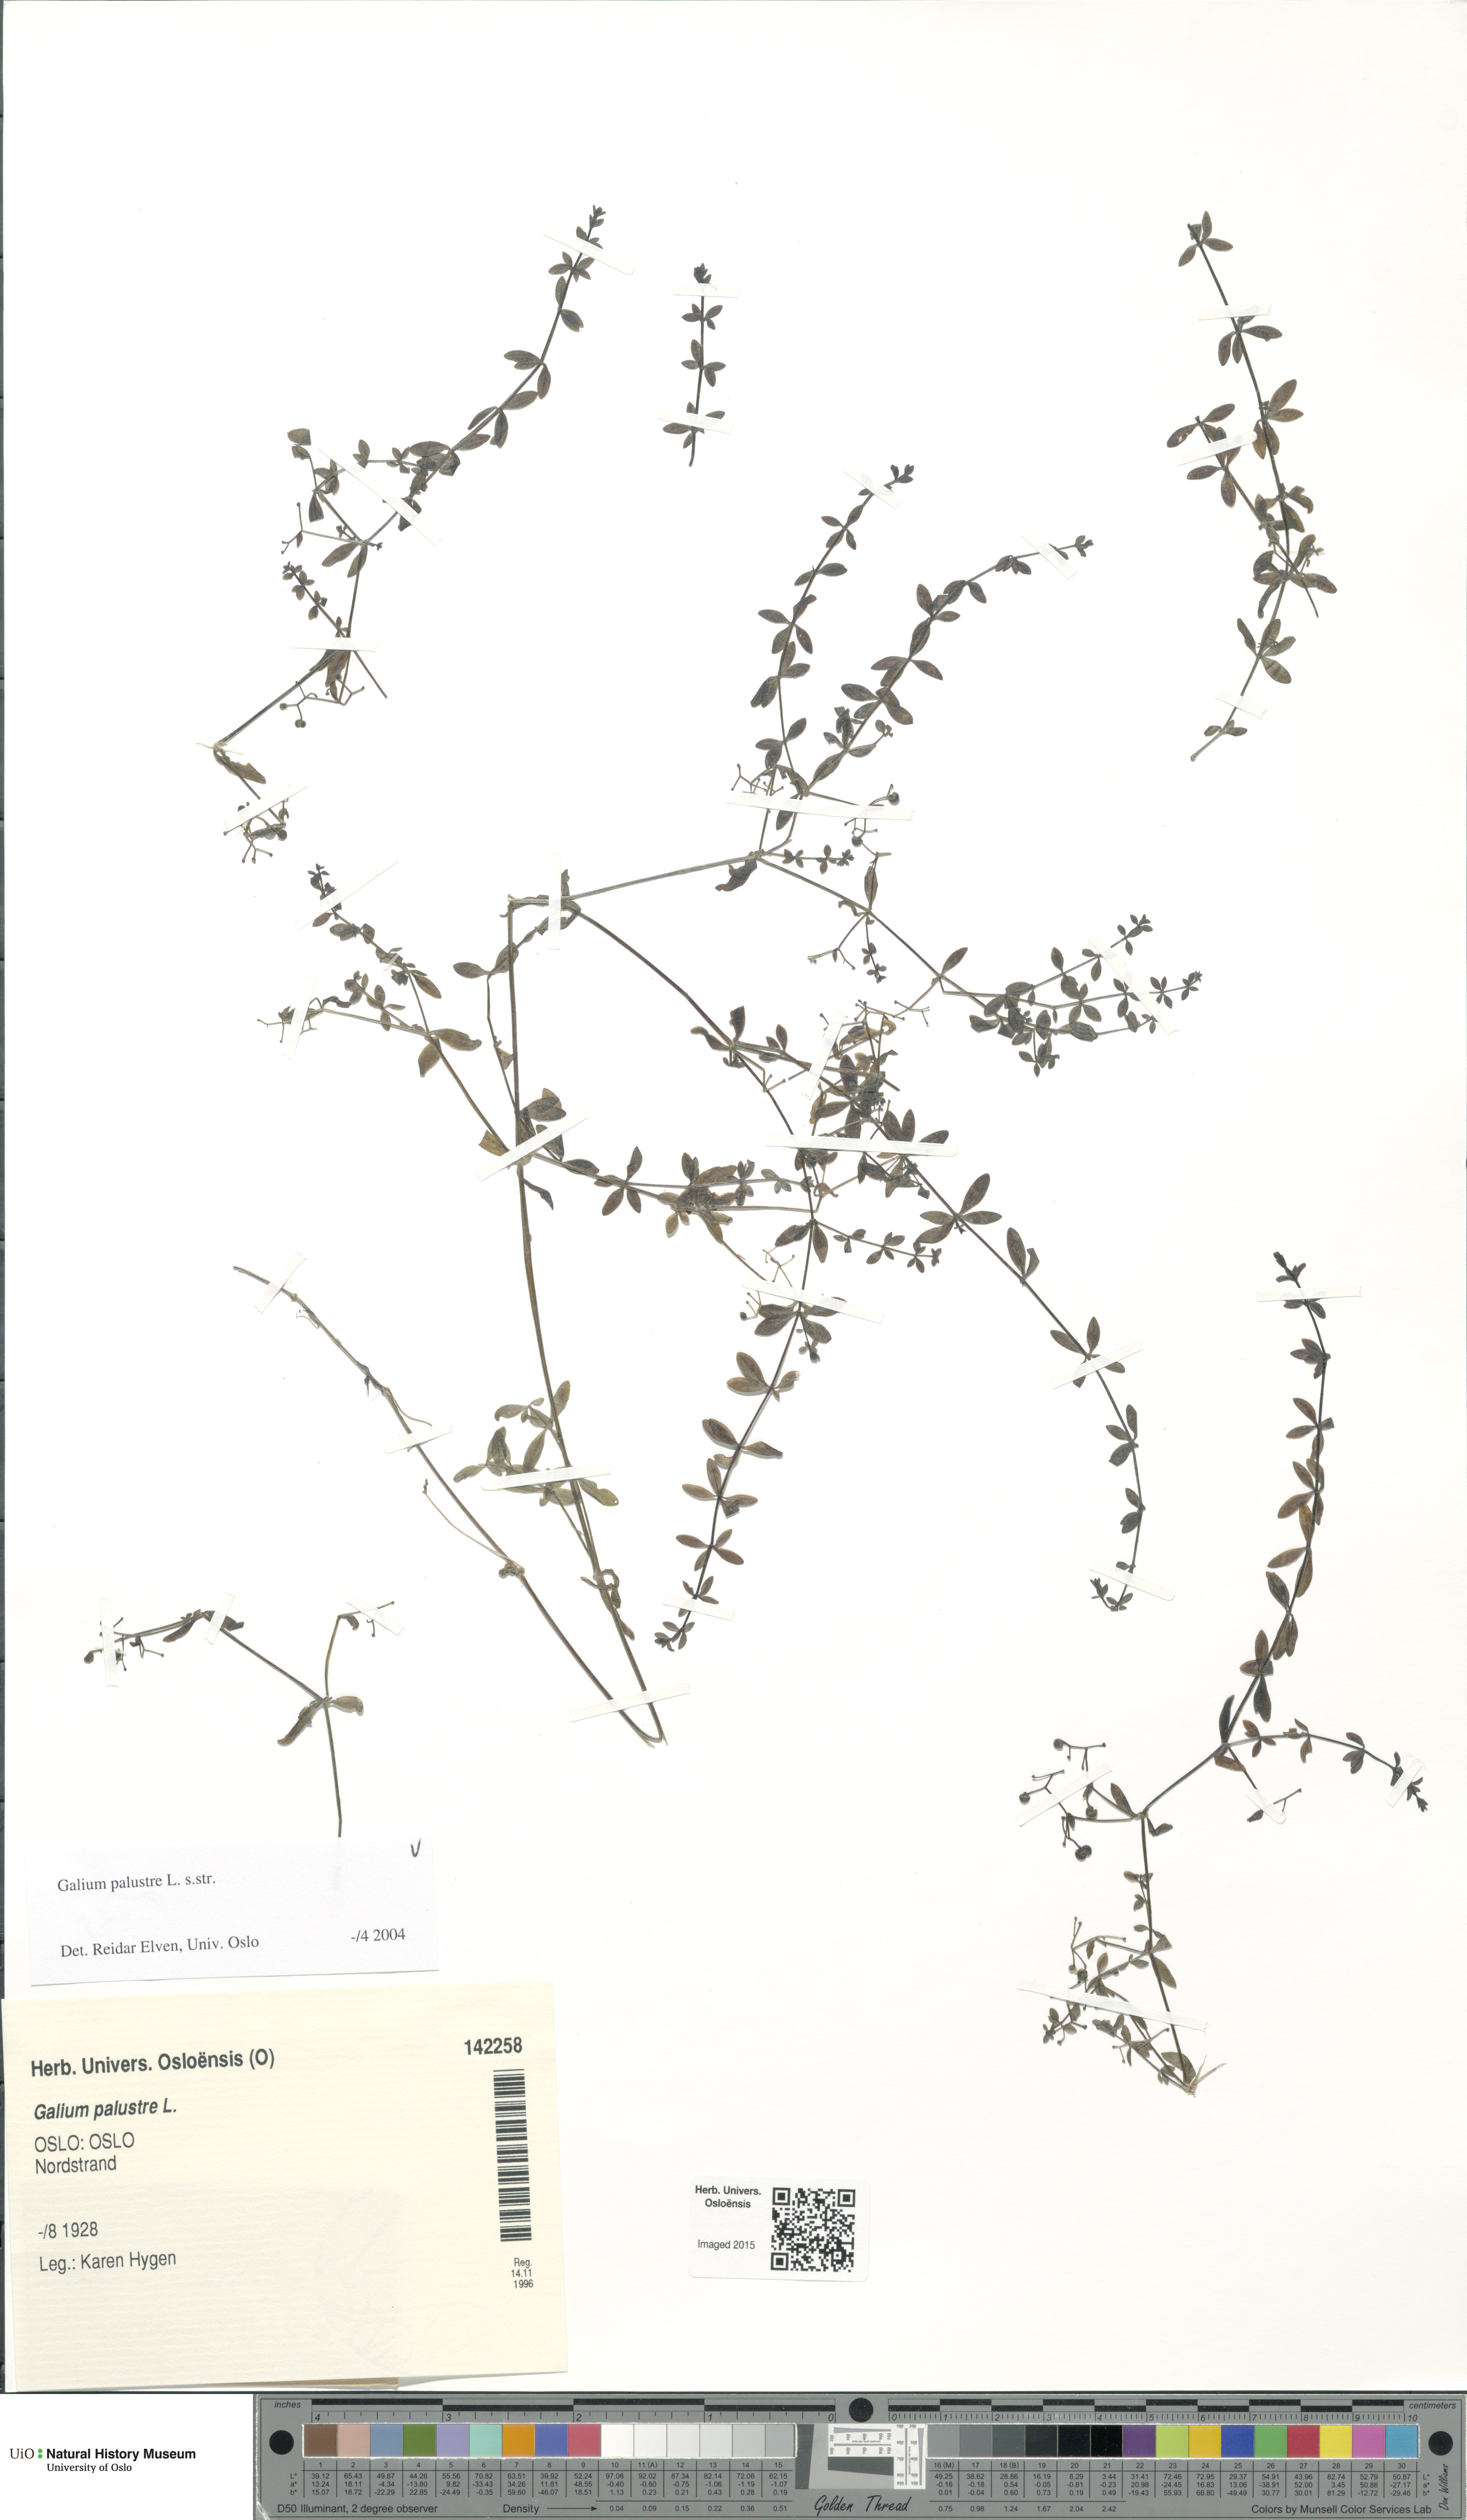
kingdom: Plantae
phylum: Tracheophyta
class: Magnoliopsida
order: Gentianales
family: Rubiaceae
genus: Galium
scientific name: Galium palustre
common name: Common marsh-bedstraw
